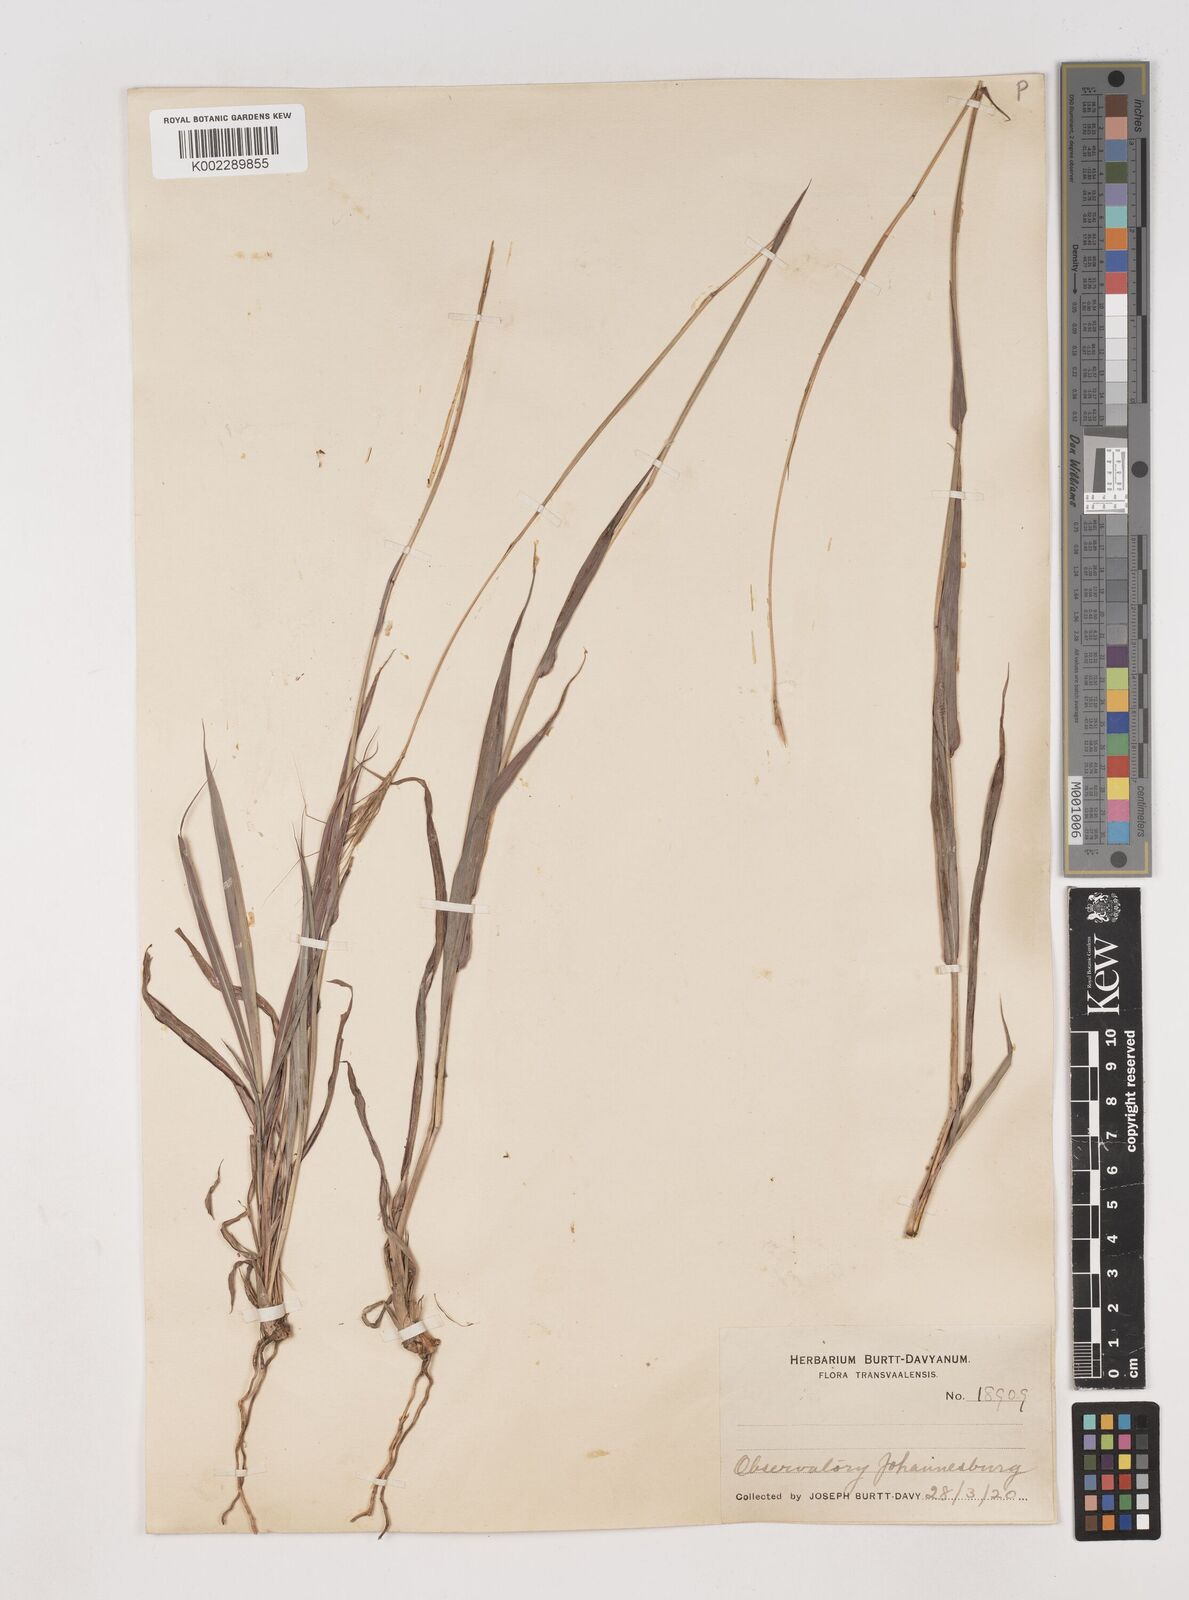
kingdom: Plantae
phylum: Tracheophyta
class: Liliopsida
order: Poales
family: Poaceae
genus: Diheteropogon
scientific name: Diheteropogon amplectens
